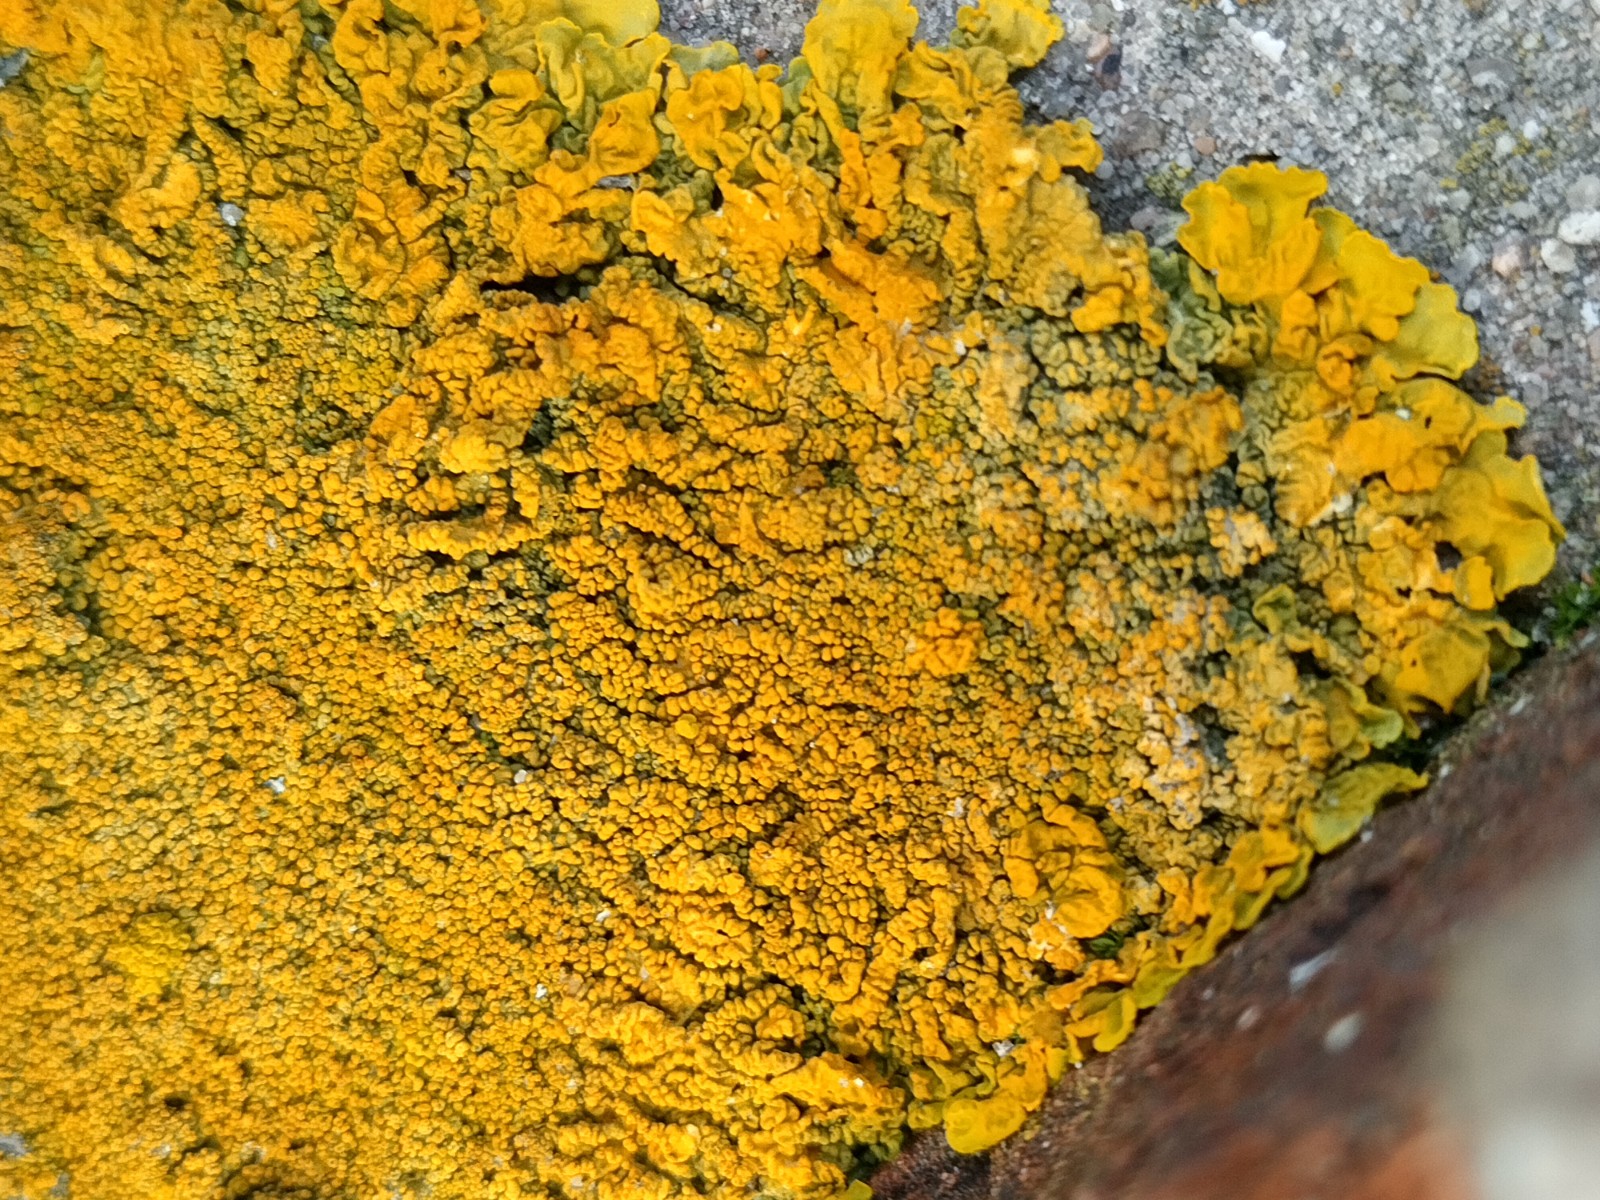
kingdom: Fungi
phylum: Ascomycota
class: Lecanoromycetes
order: Teloschistales
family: Teloschistaceae
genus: Xanthoria
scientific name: Xanthoria calcicola
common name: vortet væggelav
